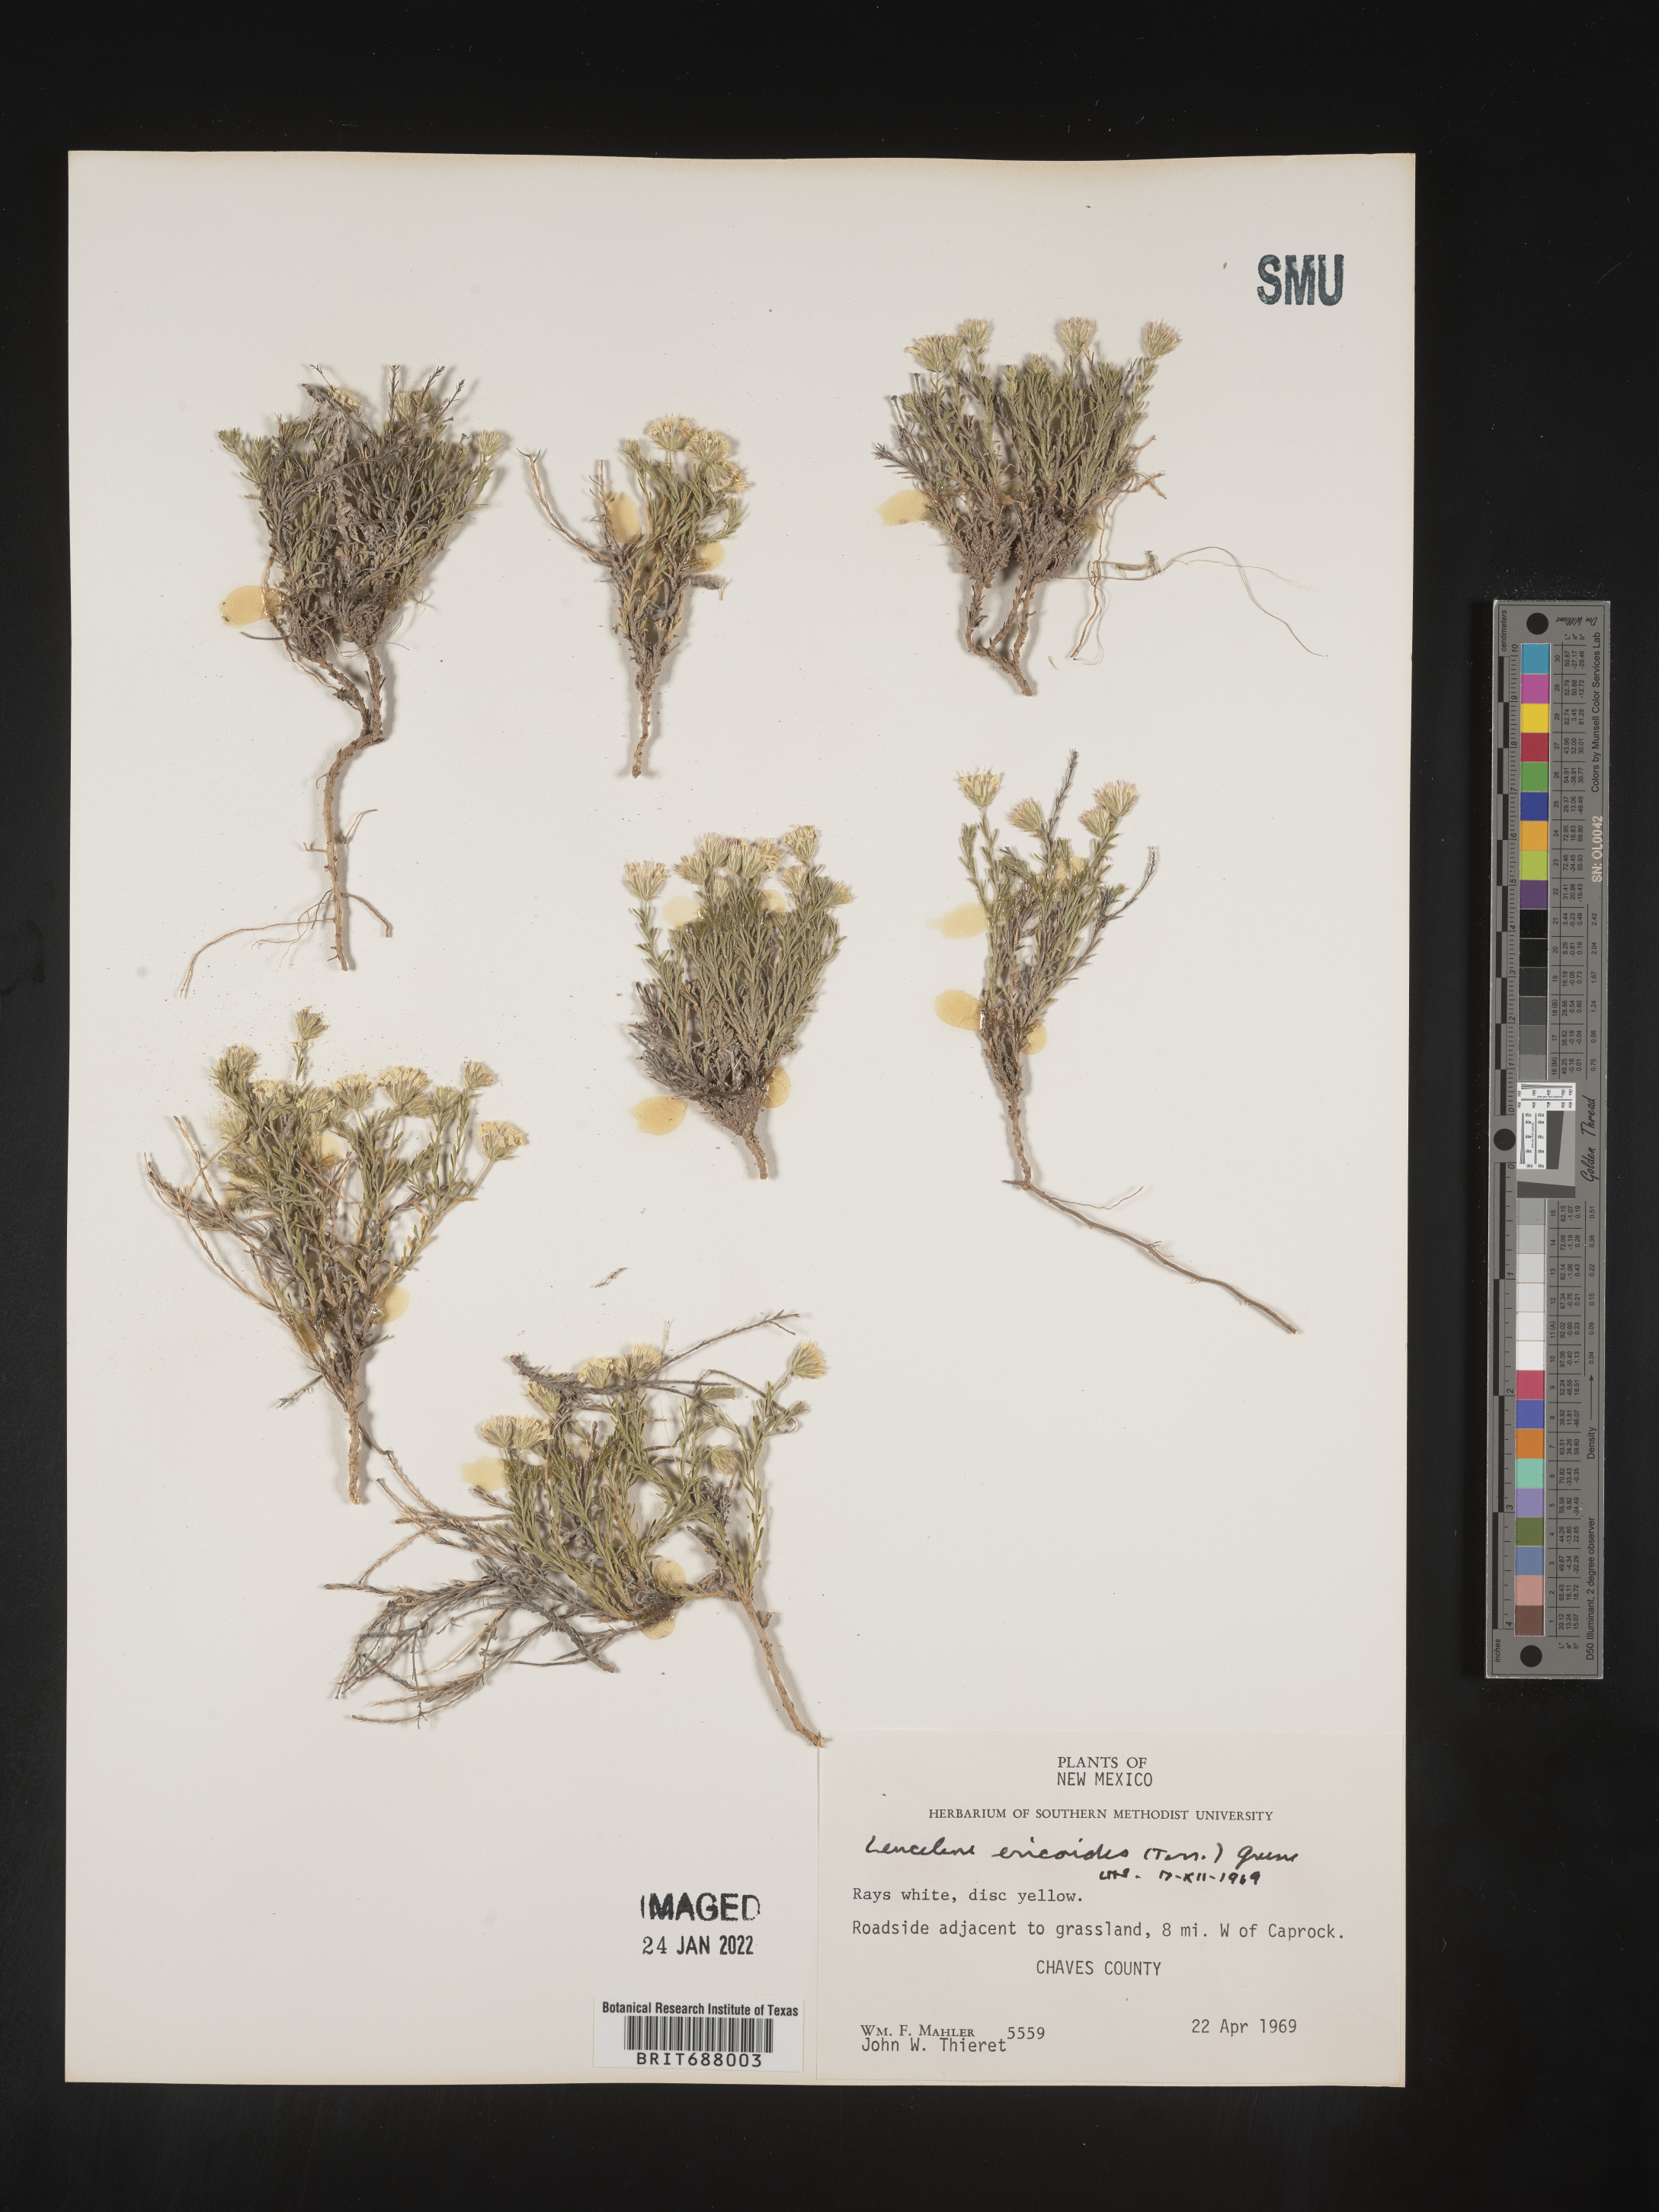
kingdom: Plantae
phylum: Tracheophyta
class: Magnoliopsida
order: Asterales
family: Asteraceae
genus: Chaetopappa
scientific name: Chaetopappa ericoides
